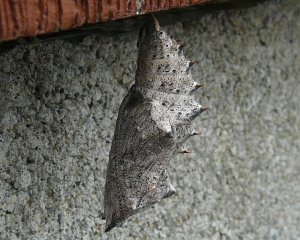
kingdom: Animalia
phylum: Arthropoda
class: Insecta
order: Lepidoptera
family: Nymphalidae
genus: Nymphalis
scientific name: Nymphalis antiopa
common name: Mourning Cloak
